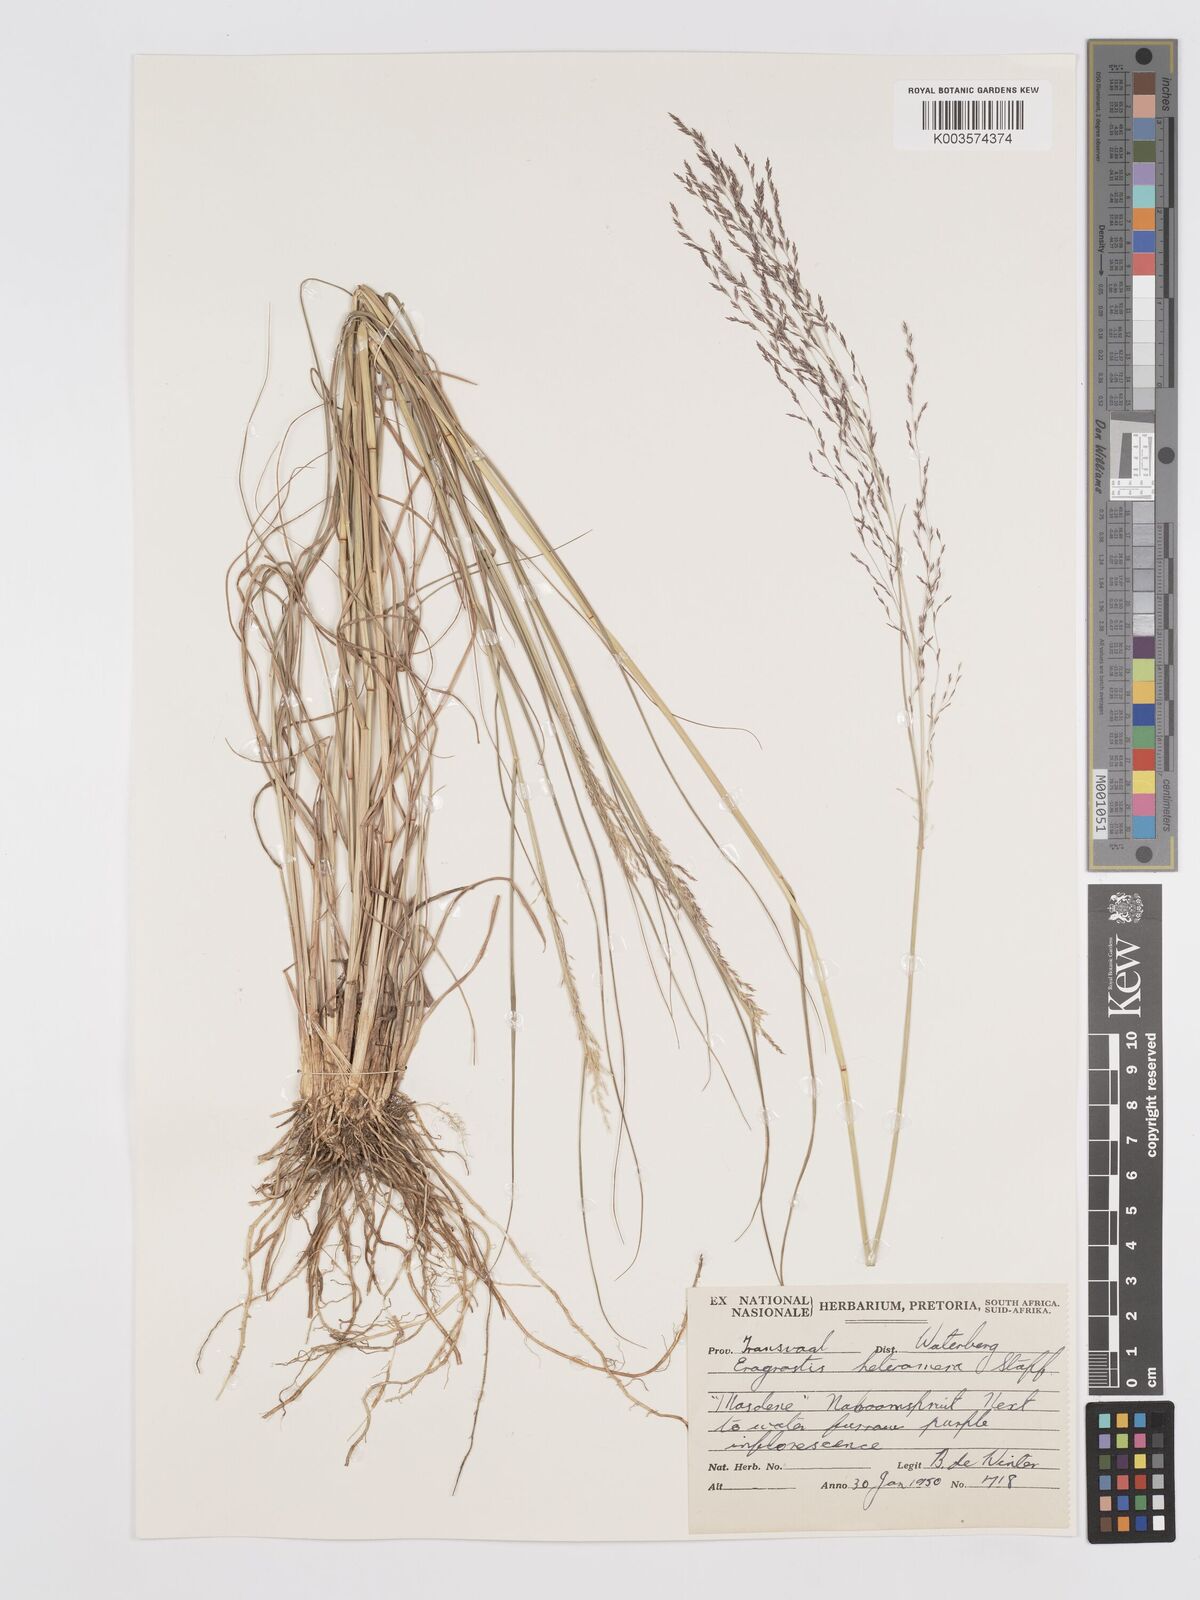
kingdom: Plantae
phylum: Tracheophyta
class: Liliopsida
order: Poales
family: Poaceae
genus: Eragrostis
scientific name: Eragrostis heteromera
